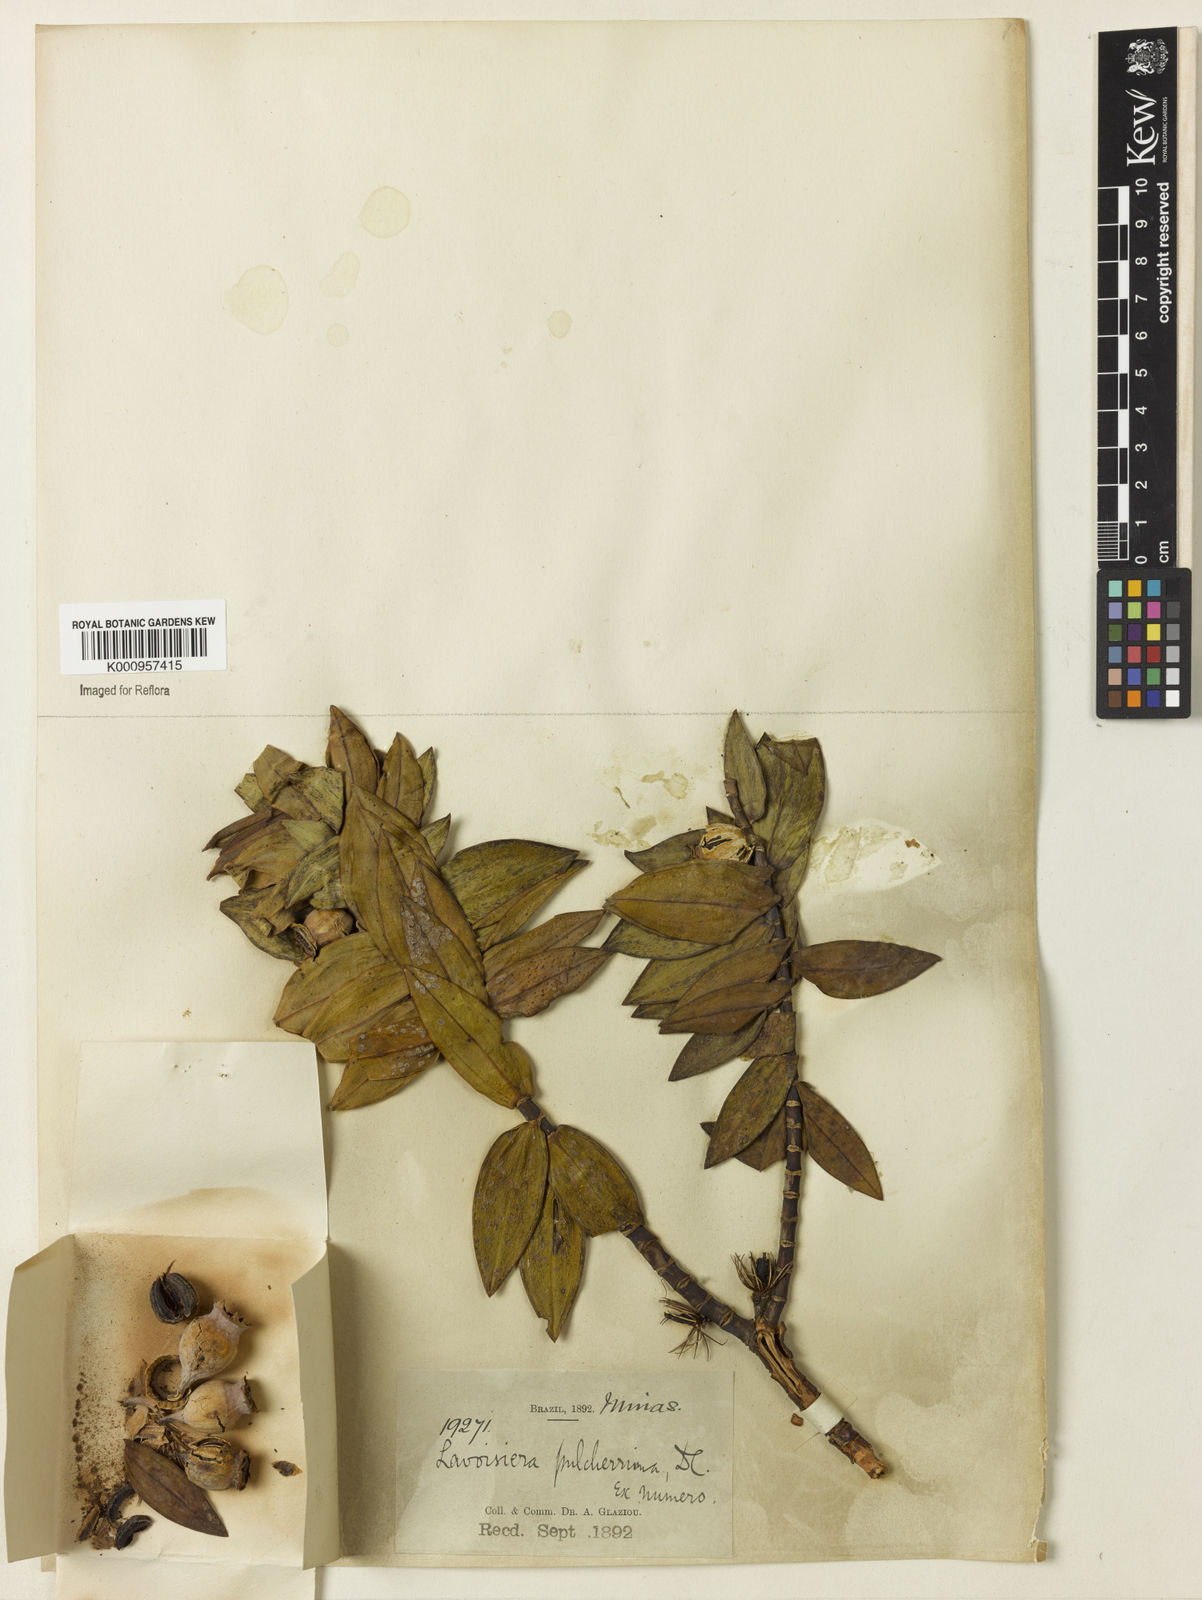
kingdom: Plantae
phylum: Tracheophyta
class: Magnoliopsida
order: Myrtales
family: Melastomataceae
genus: Microlicia
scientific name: Microlicia pulcherrima
